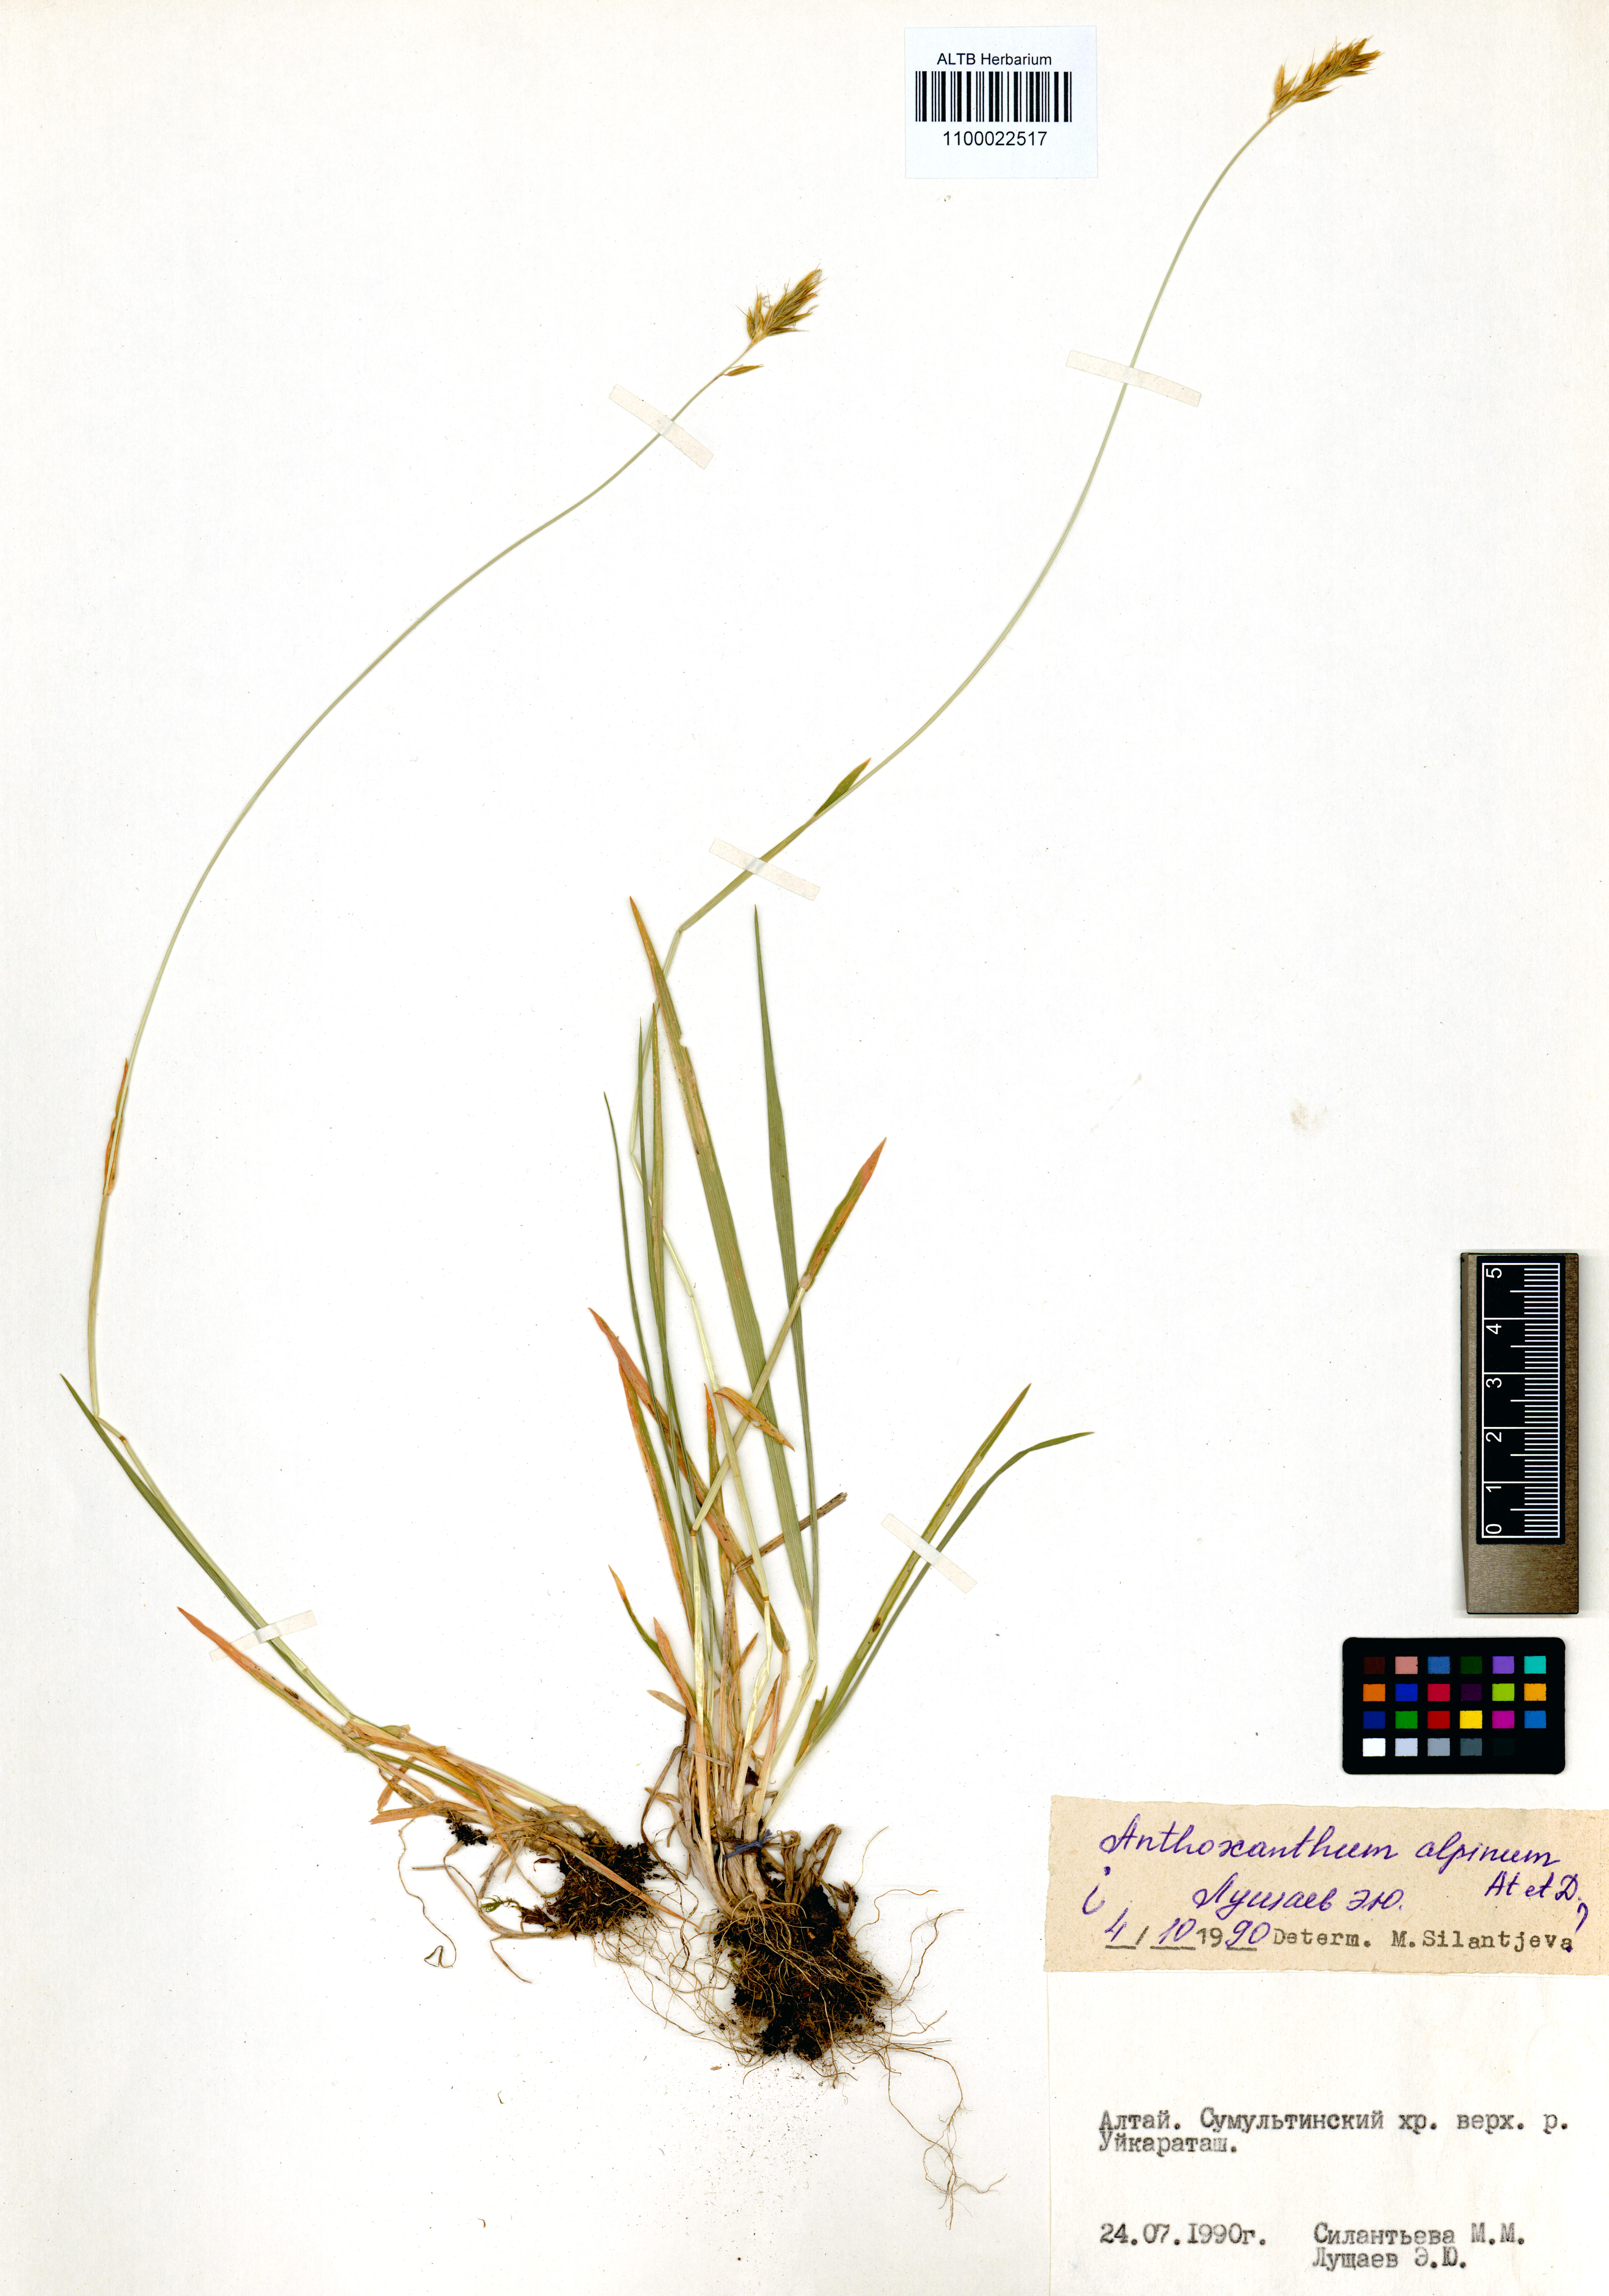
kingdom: Plantae
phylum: Tracheophyta
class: Liliopsida
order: Poales
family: Poaceae
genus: Anthoxanthum
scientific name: Anthoxanthum nipponicum
